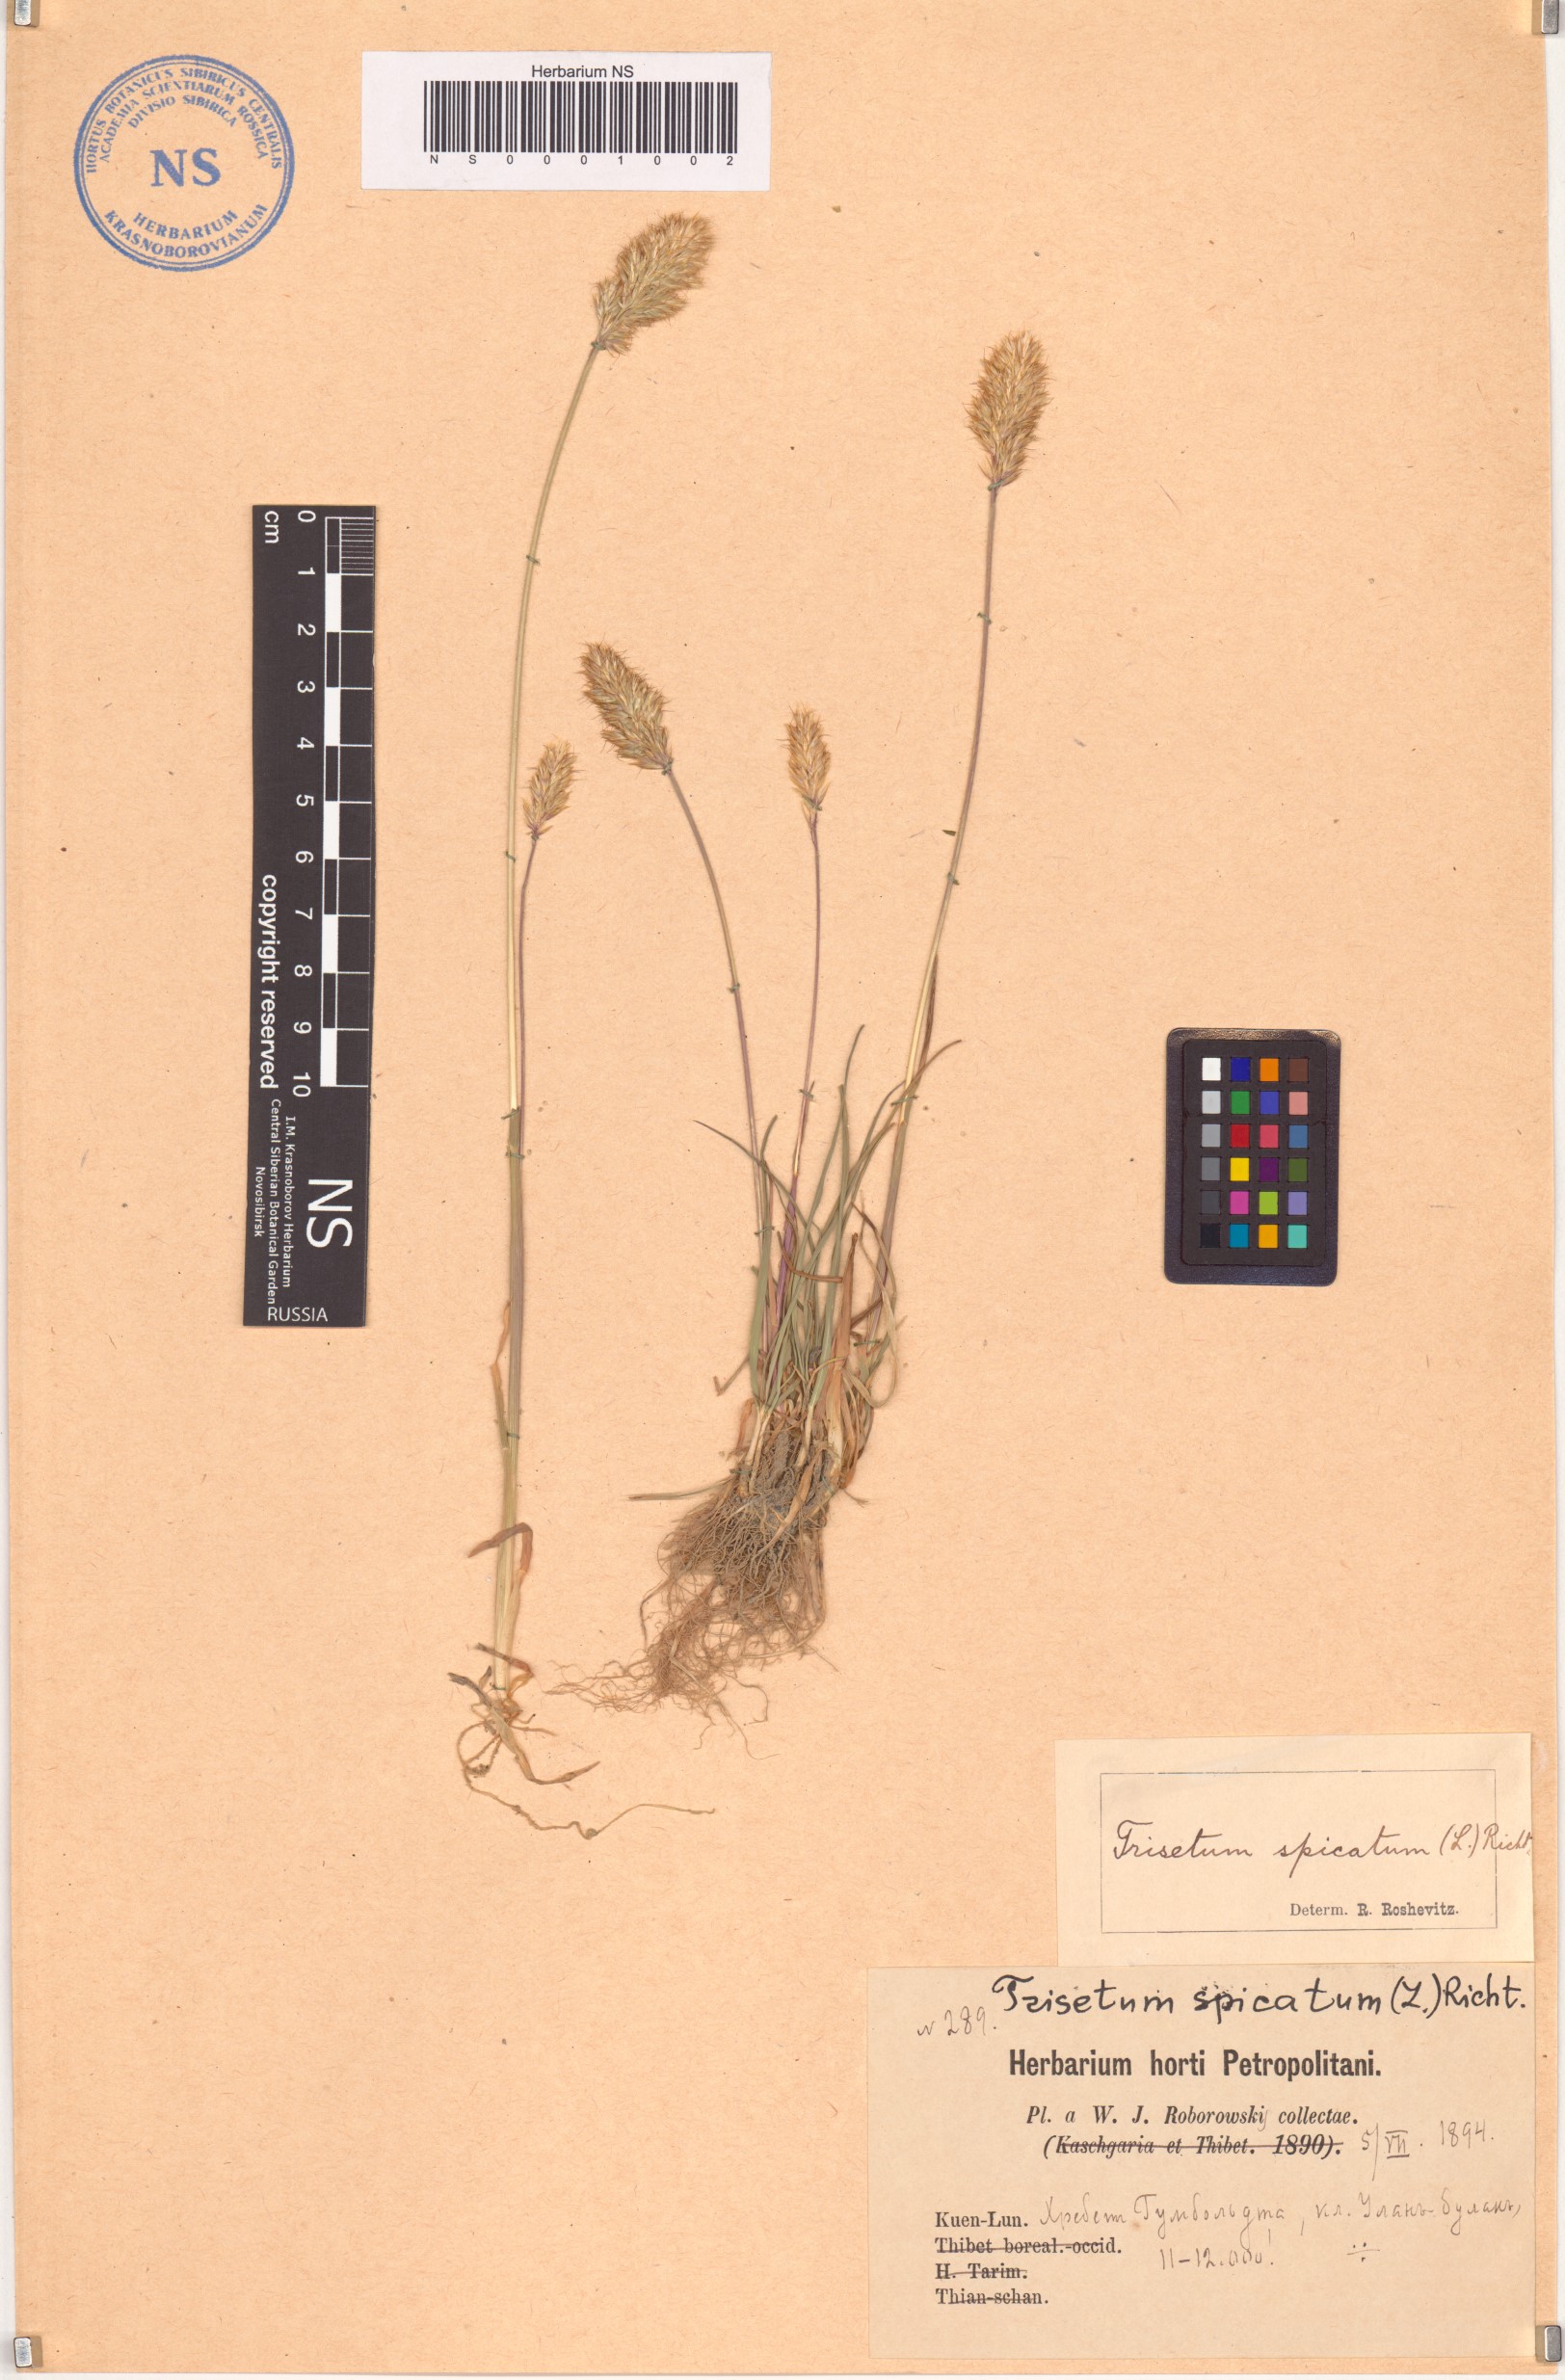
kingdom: Plantae
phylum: Tracheophyta
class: Liliopsida
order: Poales
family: Poaceae
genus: Koeleria
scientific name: Koeleria spicata
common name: Mountain trisetum
